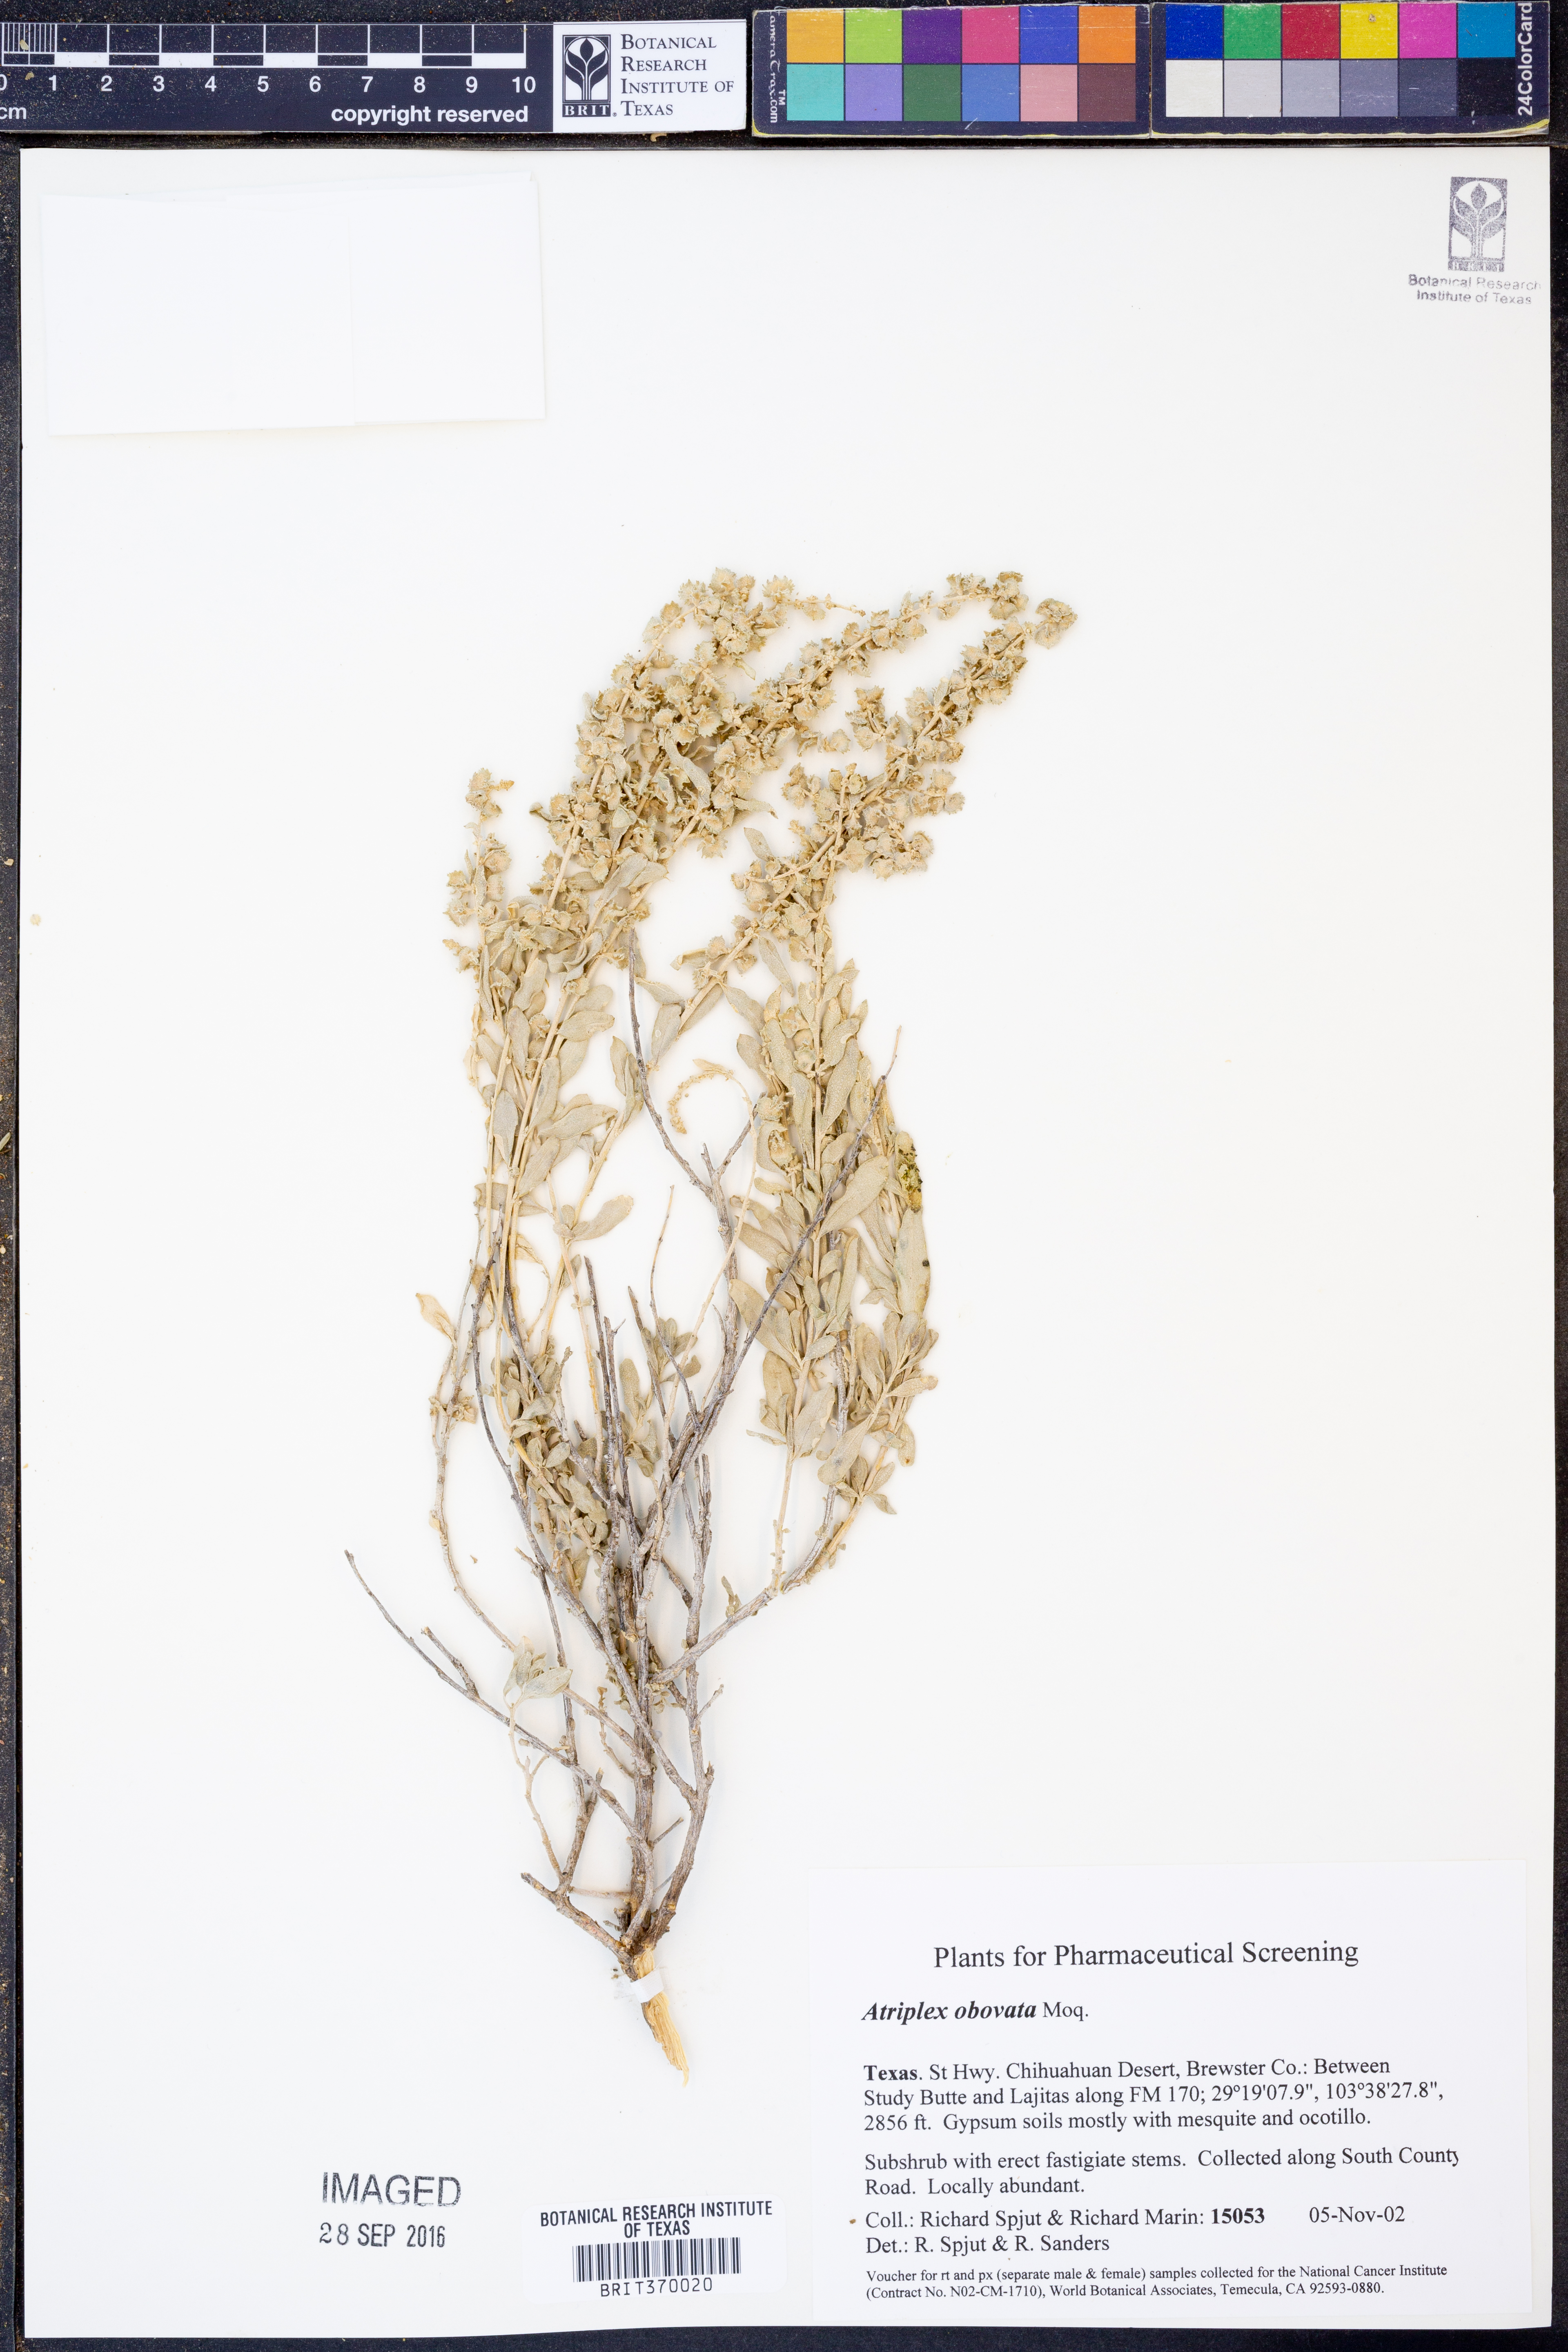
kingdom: Plantae
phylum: Tracheophyta
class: Magnoliopsida
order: Caryophyllales
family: Amaranthaceae
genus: Atriplex
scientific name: Atriplex obovata
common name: New mexico saltbush
